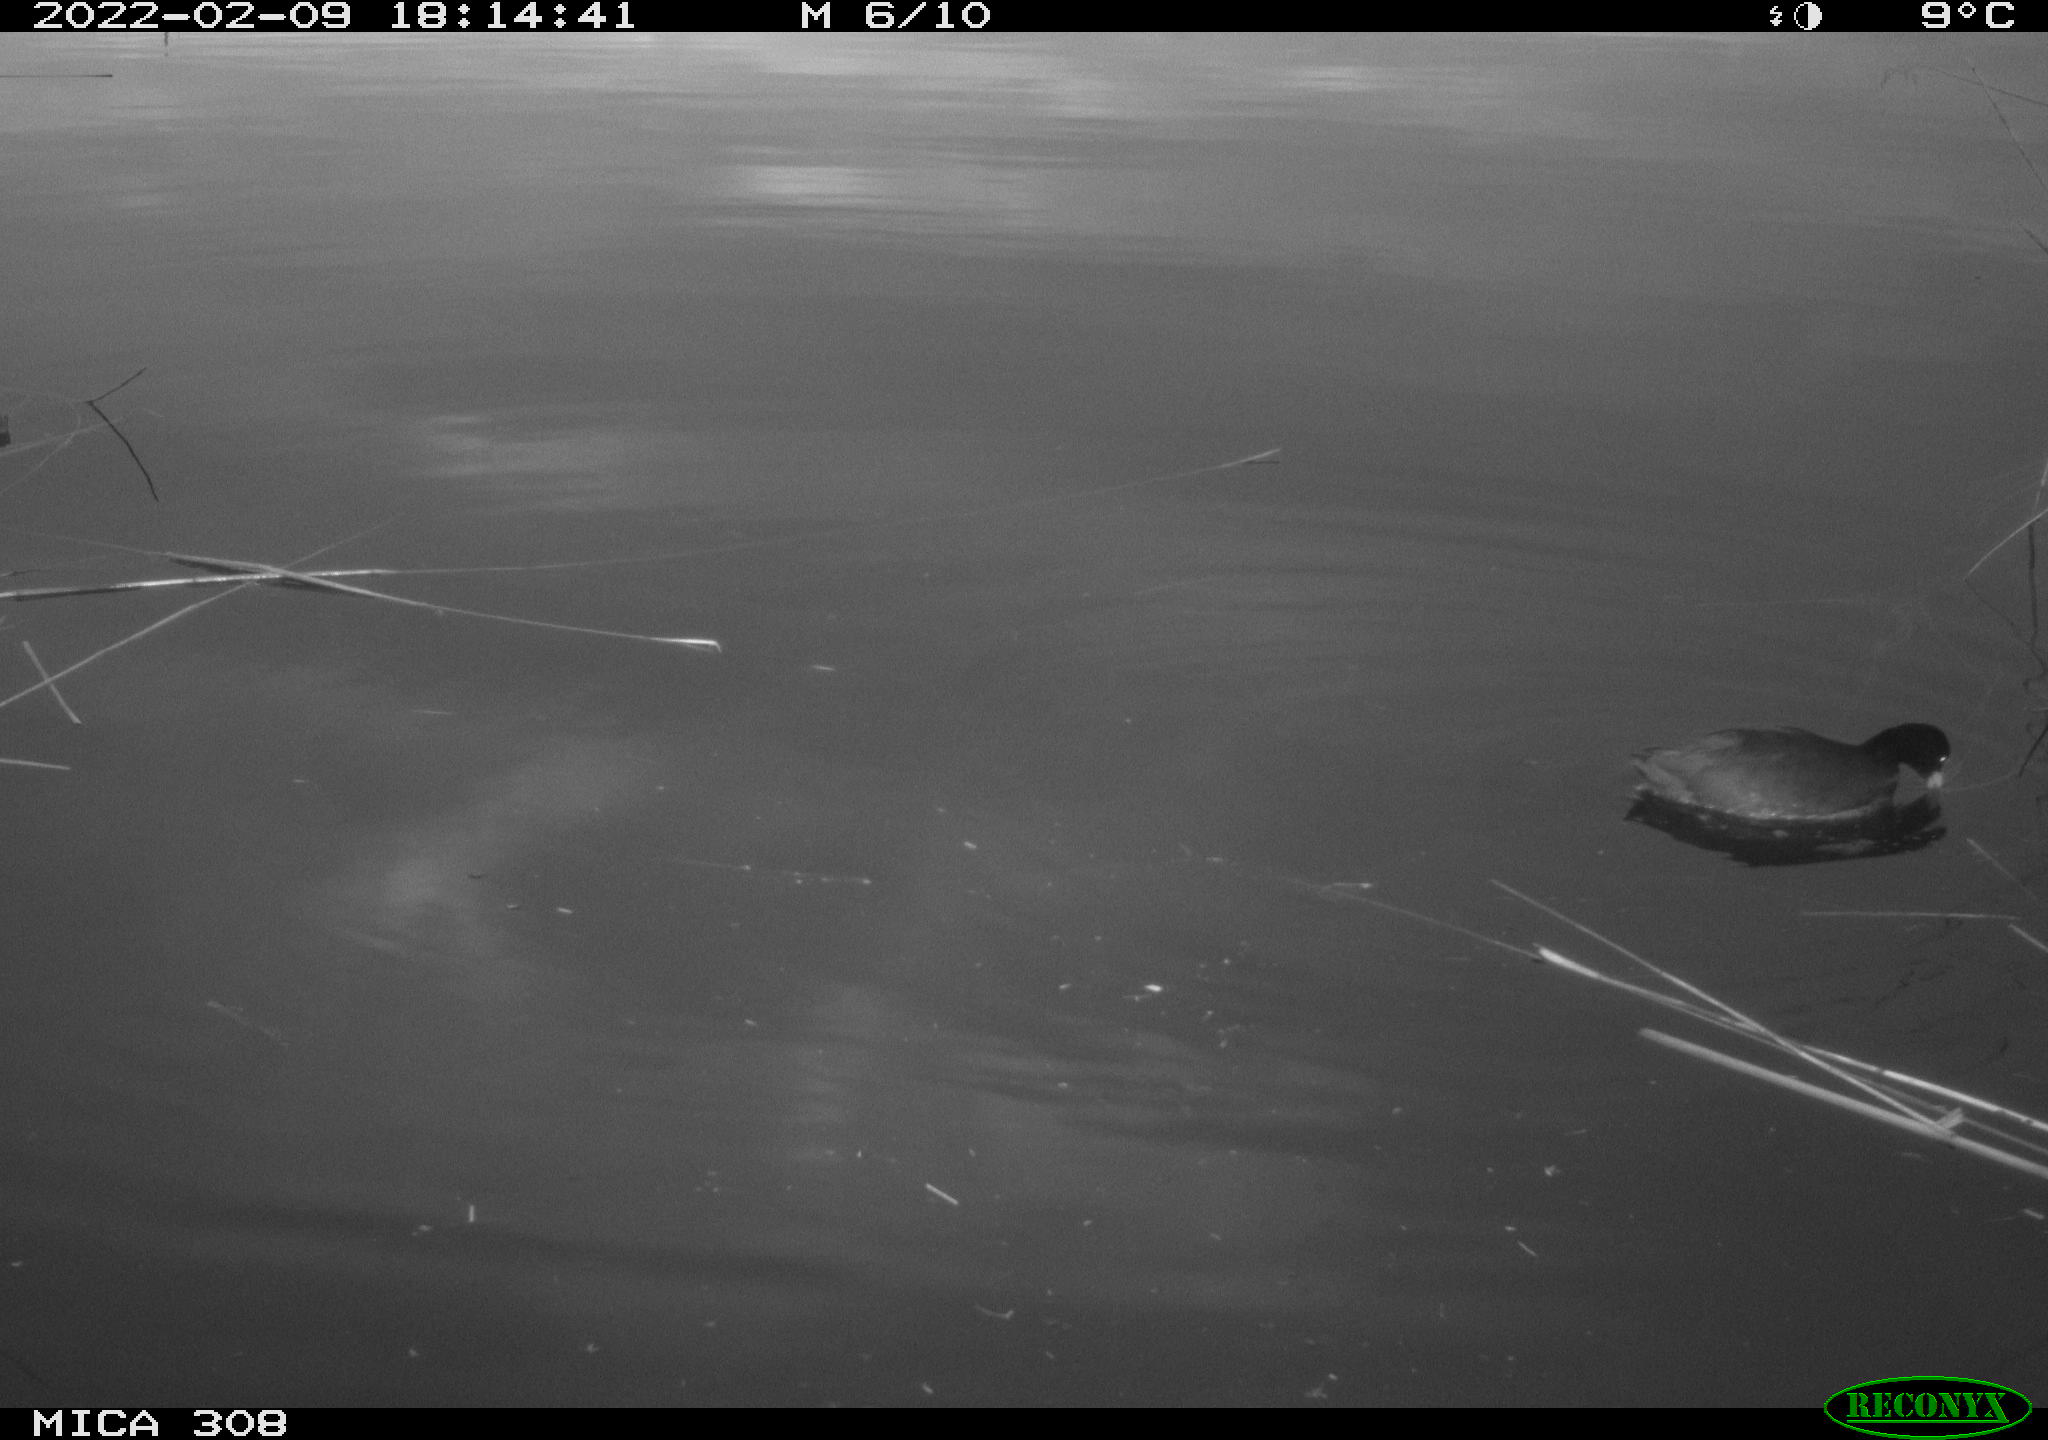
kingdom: Animalia
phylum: Chordata
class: Aves
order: Gruiformes
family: Rallidae
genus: Fulica
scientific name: Fulica atra
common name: Eurasian coot
